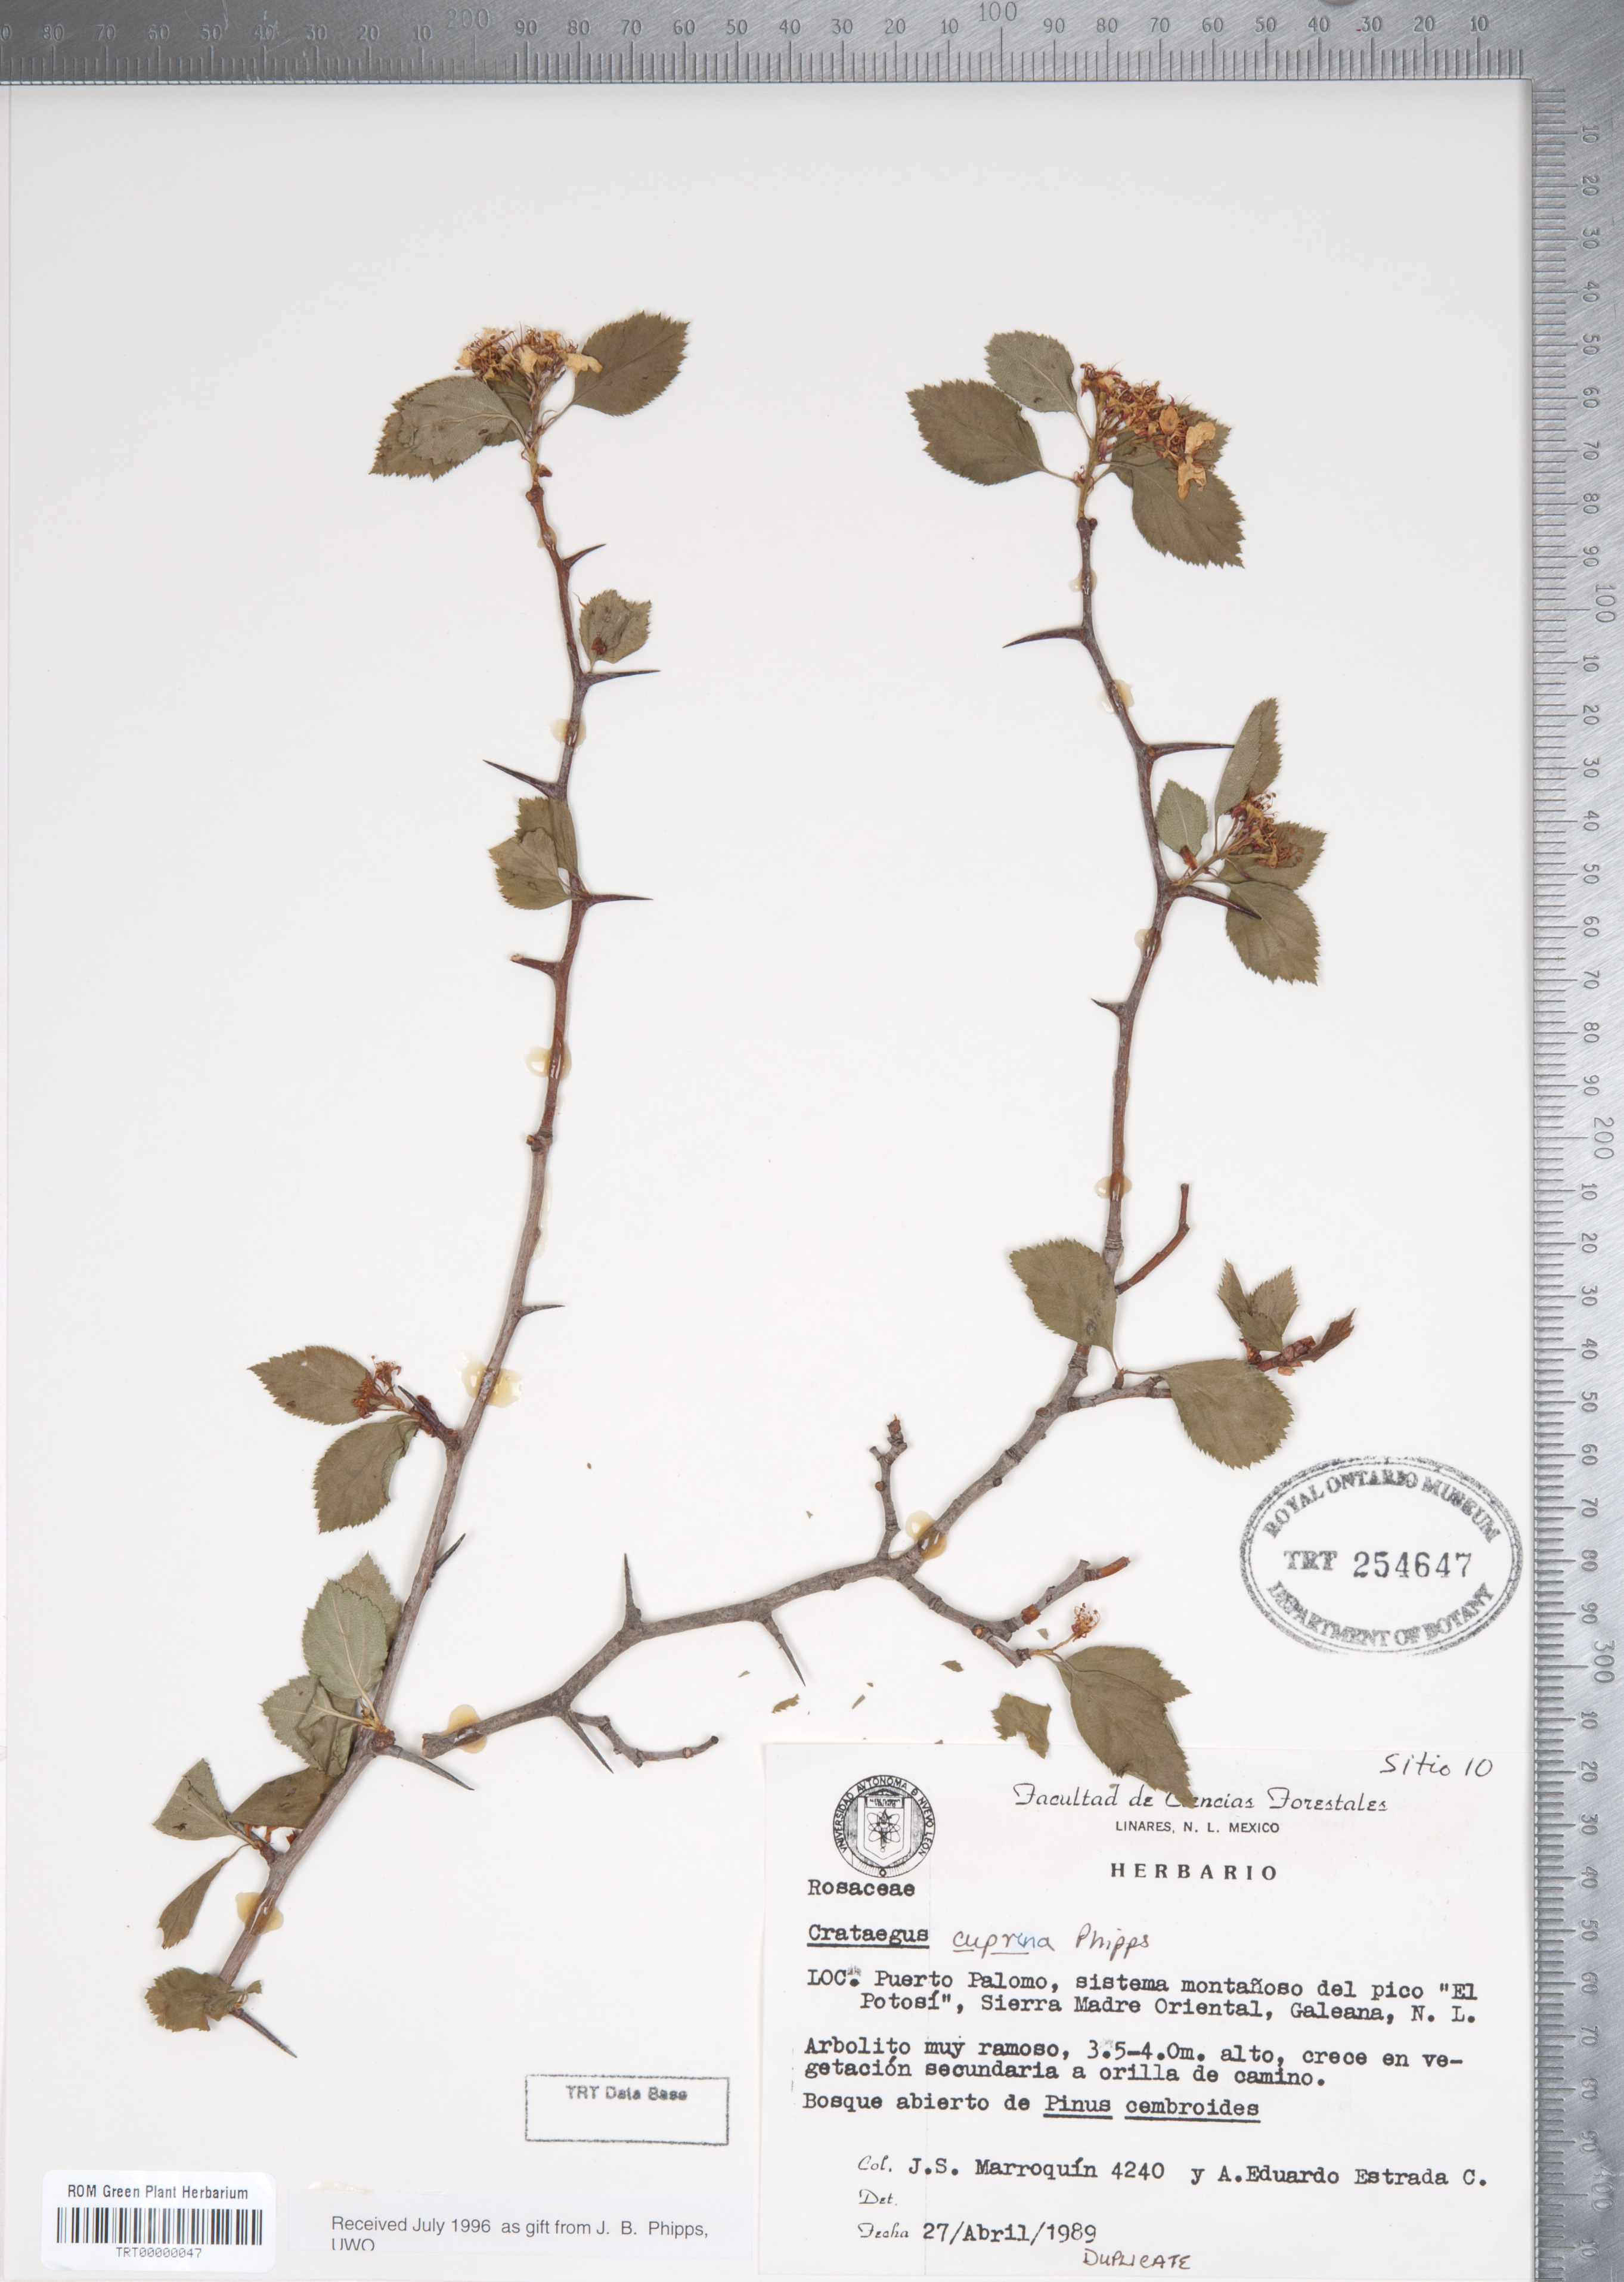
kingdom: Plantae
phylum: Tracheophyta
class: Magnoliopsida
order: Rosales
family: Rosaceae
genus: Crataegus
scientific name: Crataegus cuprina
